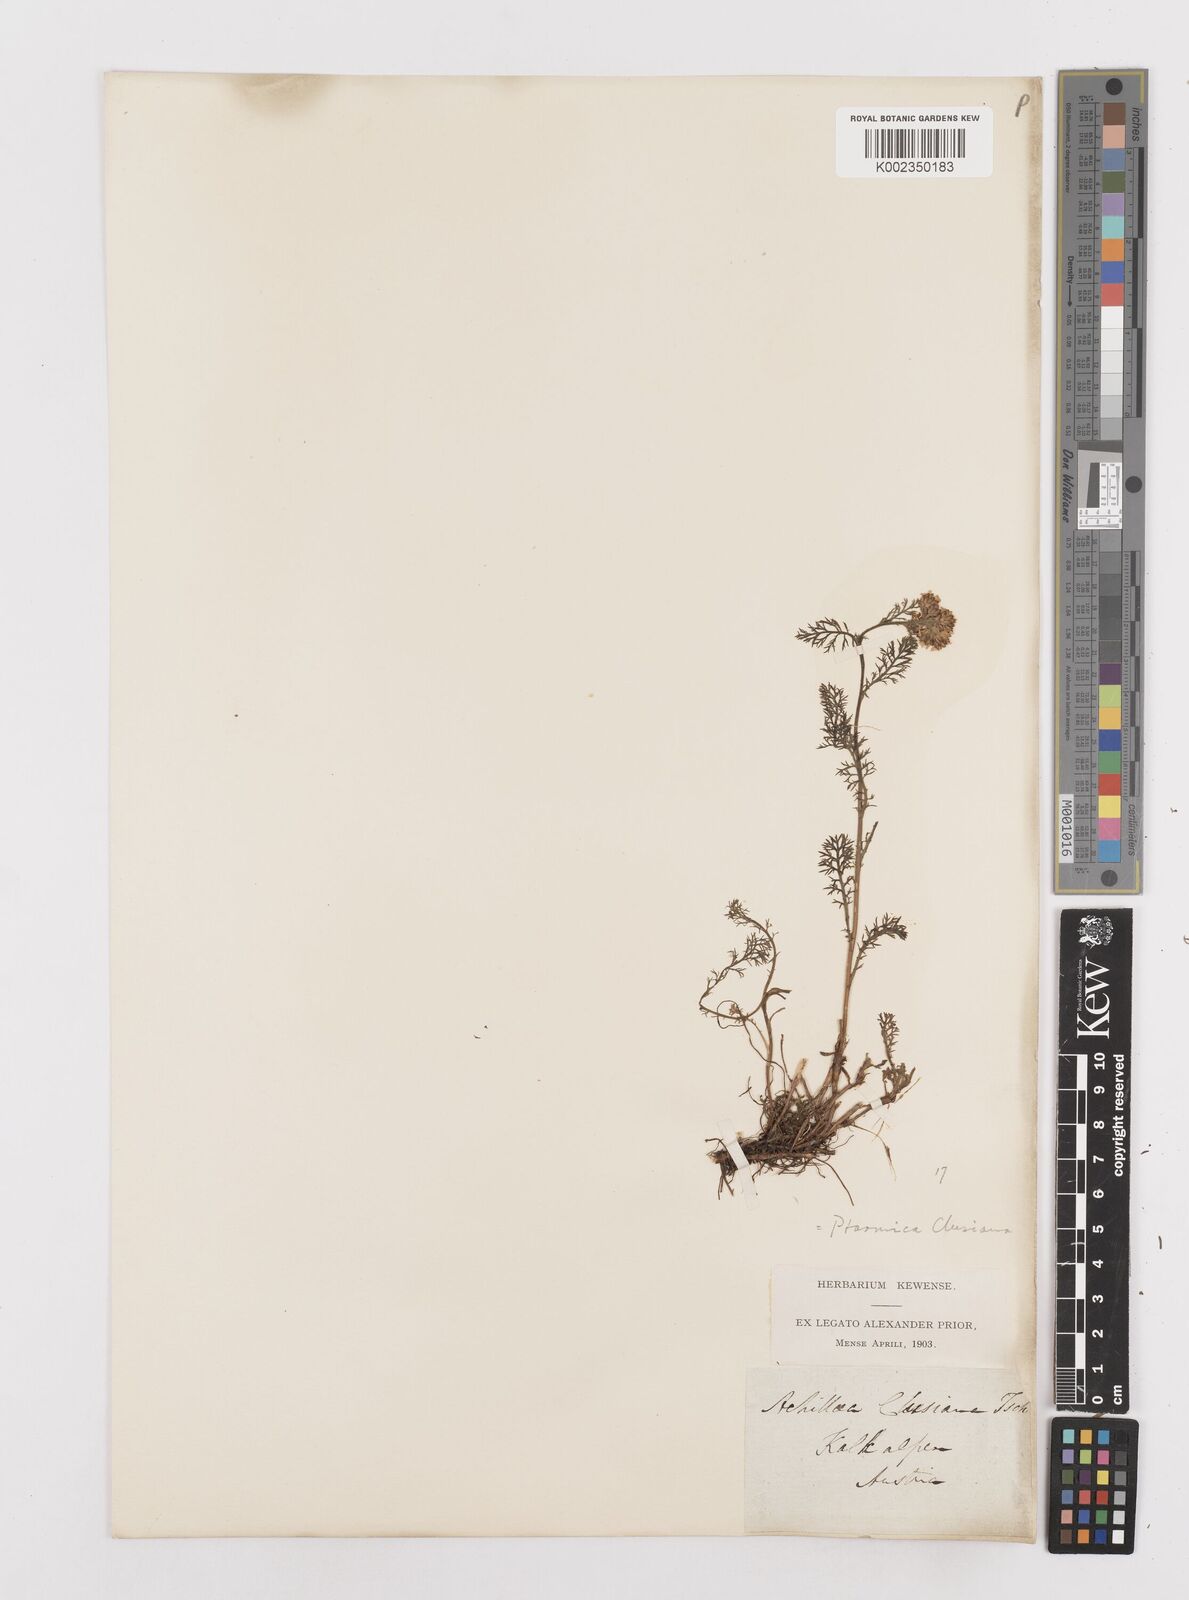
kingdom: Plantae
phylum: Tracheophyta
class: Magnoliopsida
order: Asterales
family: Asteraceae
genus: Achillea
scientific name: Achillea clusiana
